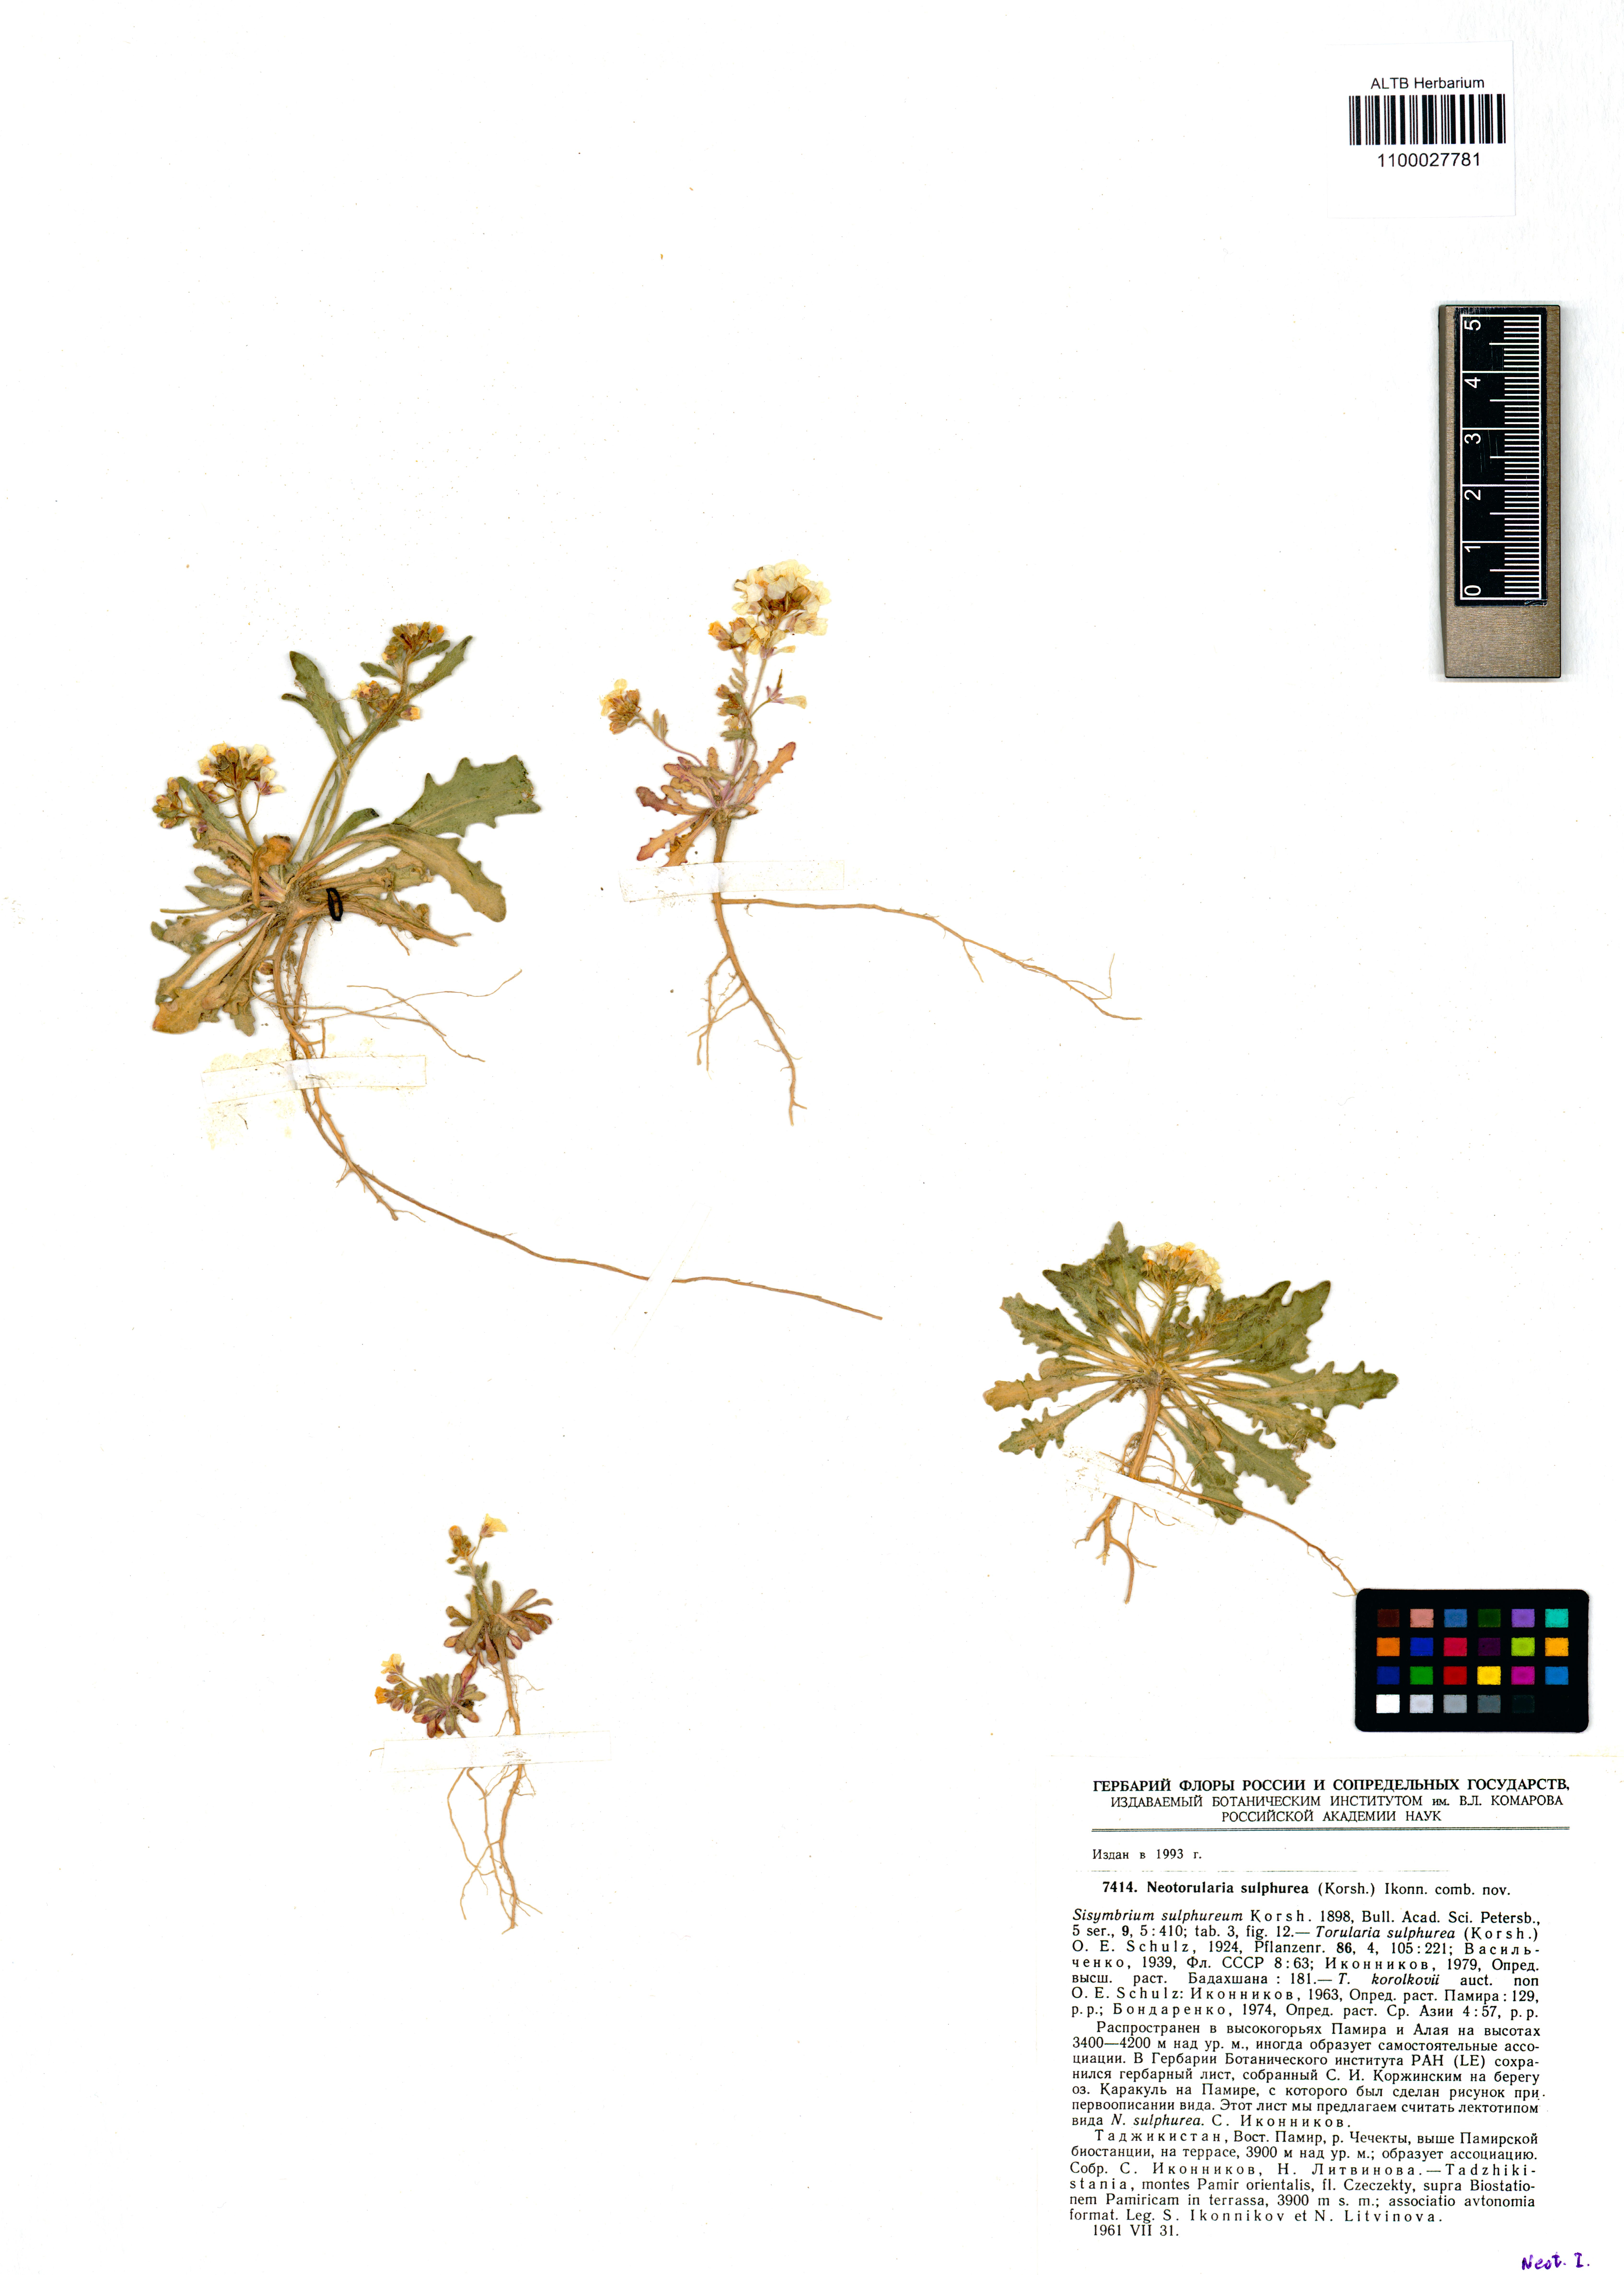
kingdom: Plantae
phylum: Tracheophyta
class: Magnoliopsida
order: Brassicales
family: Brassicaceae
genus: Rudolf-kamelinia
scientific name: Rudolf-kamelinia korolkowii
